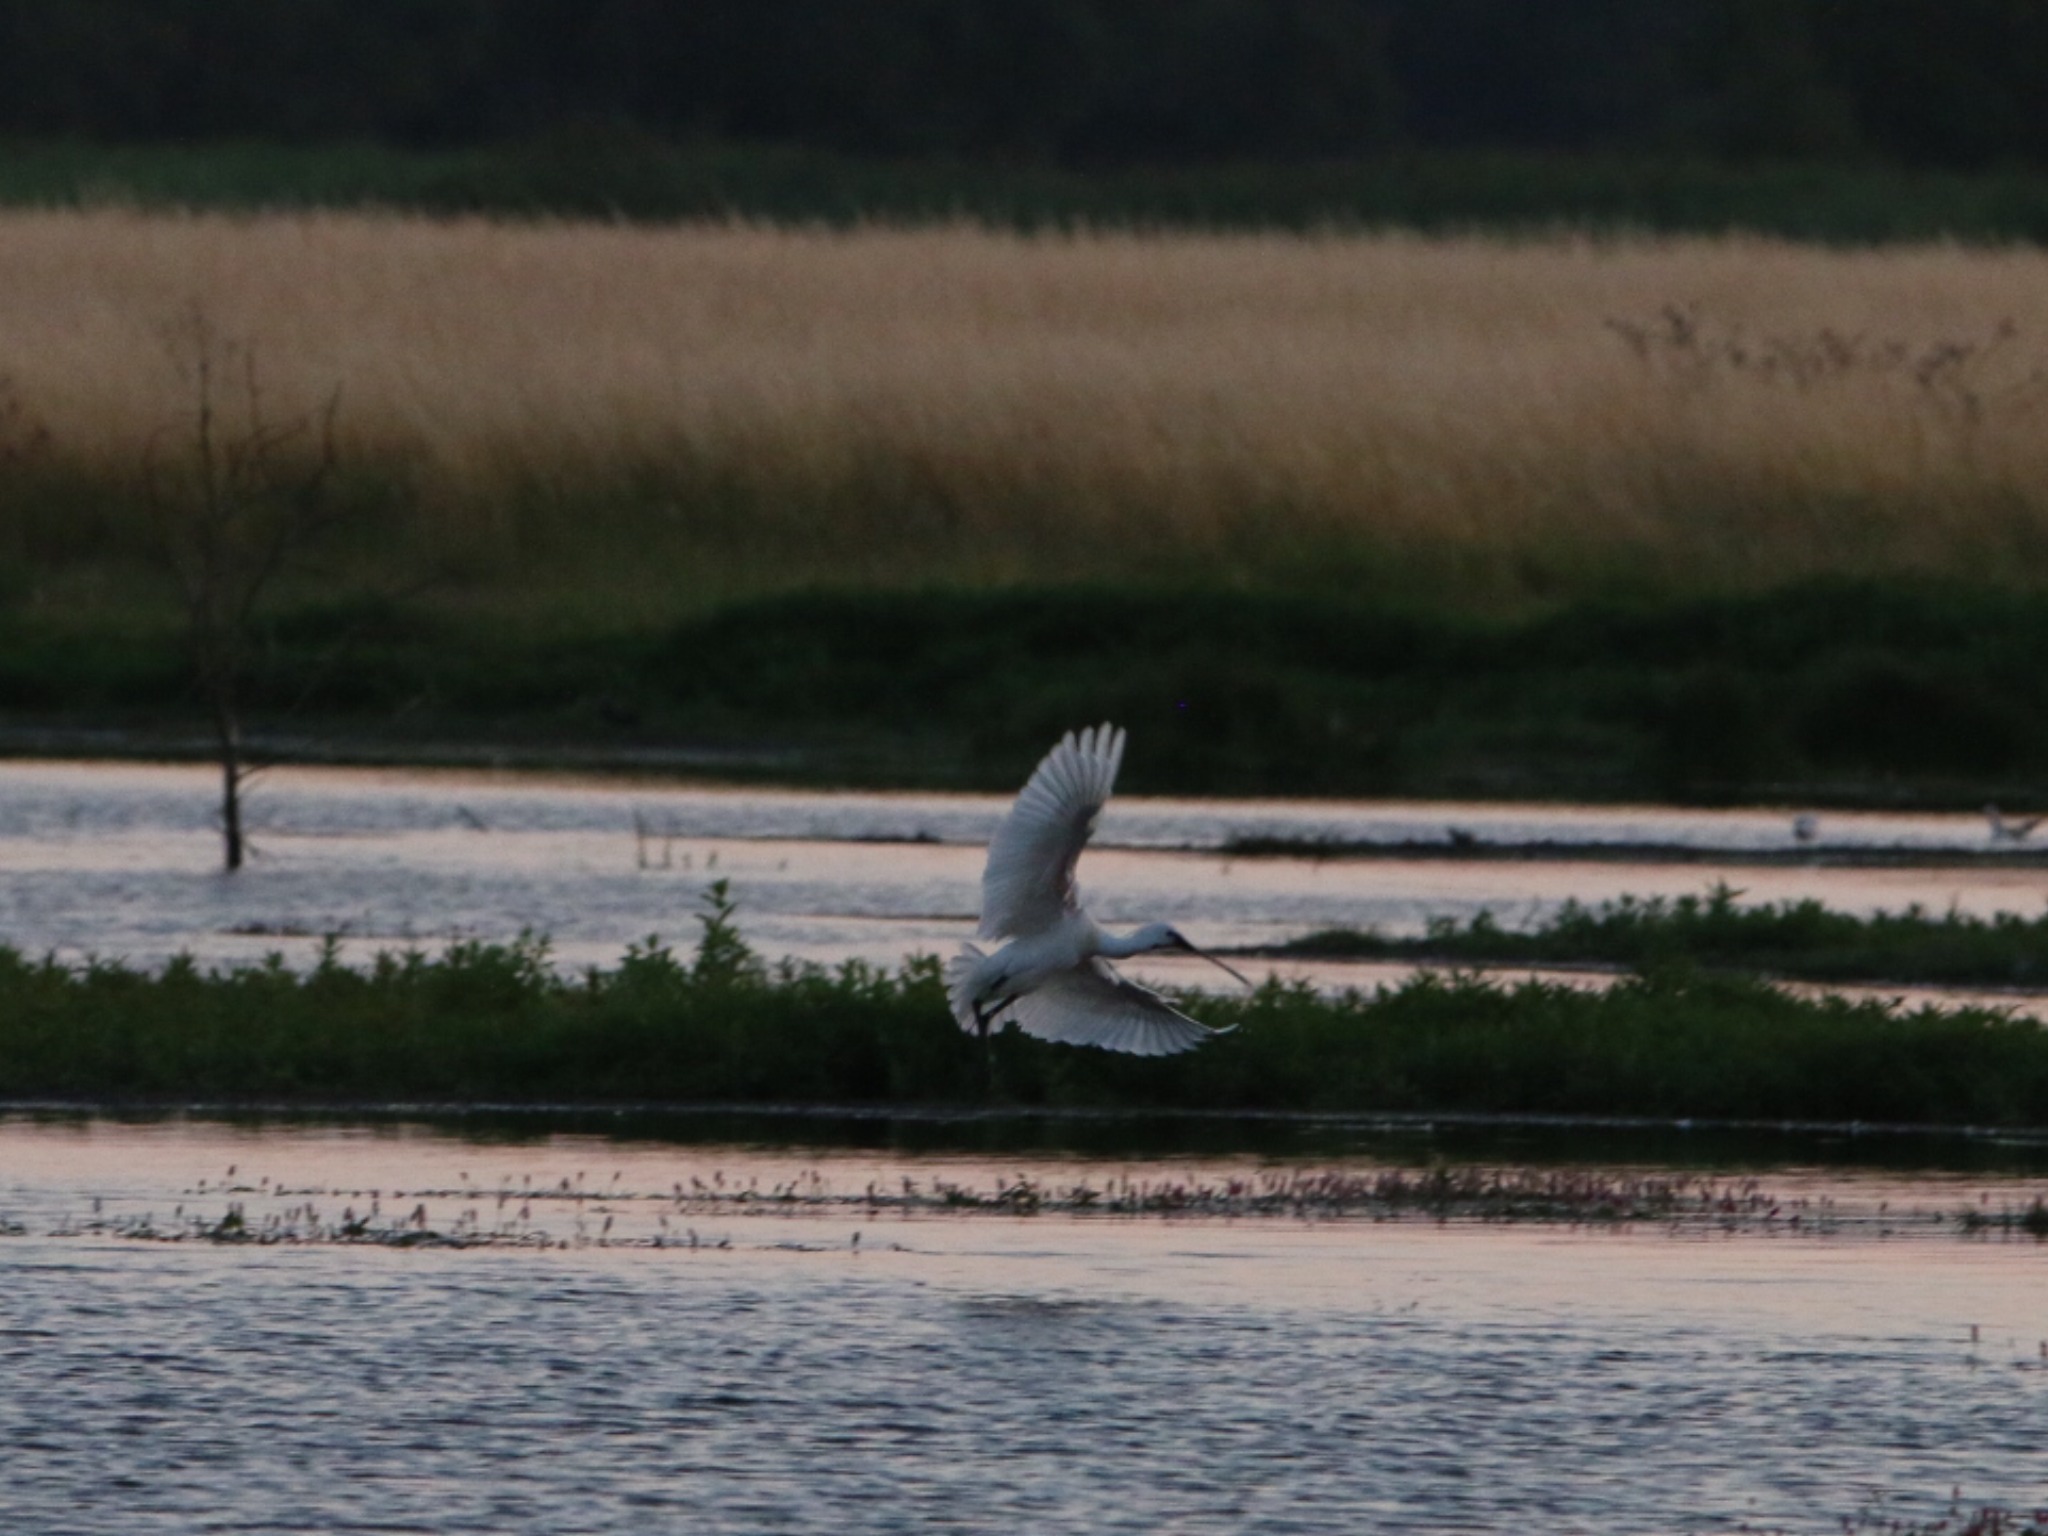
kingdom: Animalia
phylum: Chordata
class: Aves
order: Pelecaniformes
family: Threskiornithidae
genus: Platalea
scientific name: Platalea leucorodia
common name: Skestork
